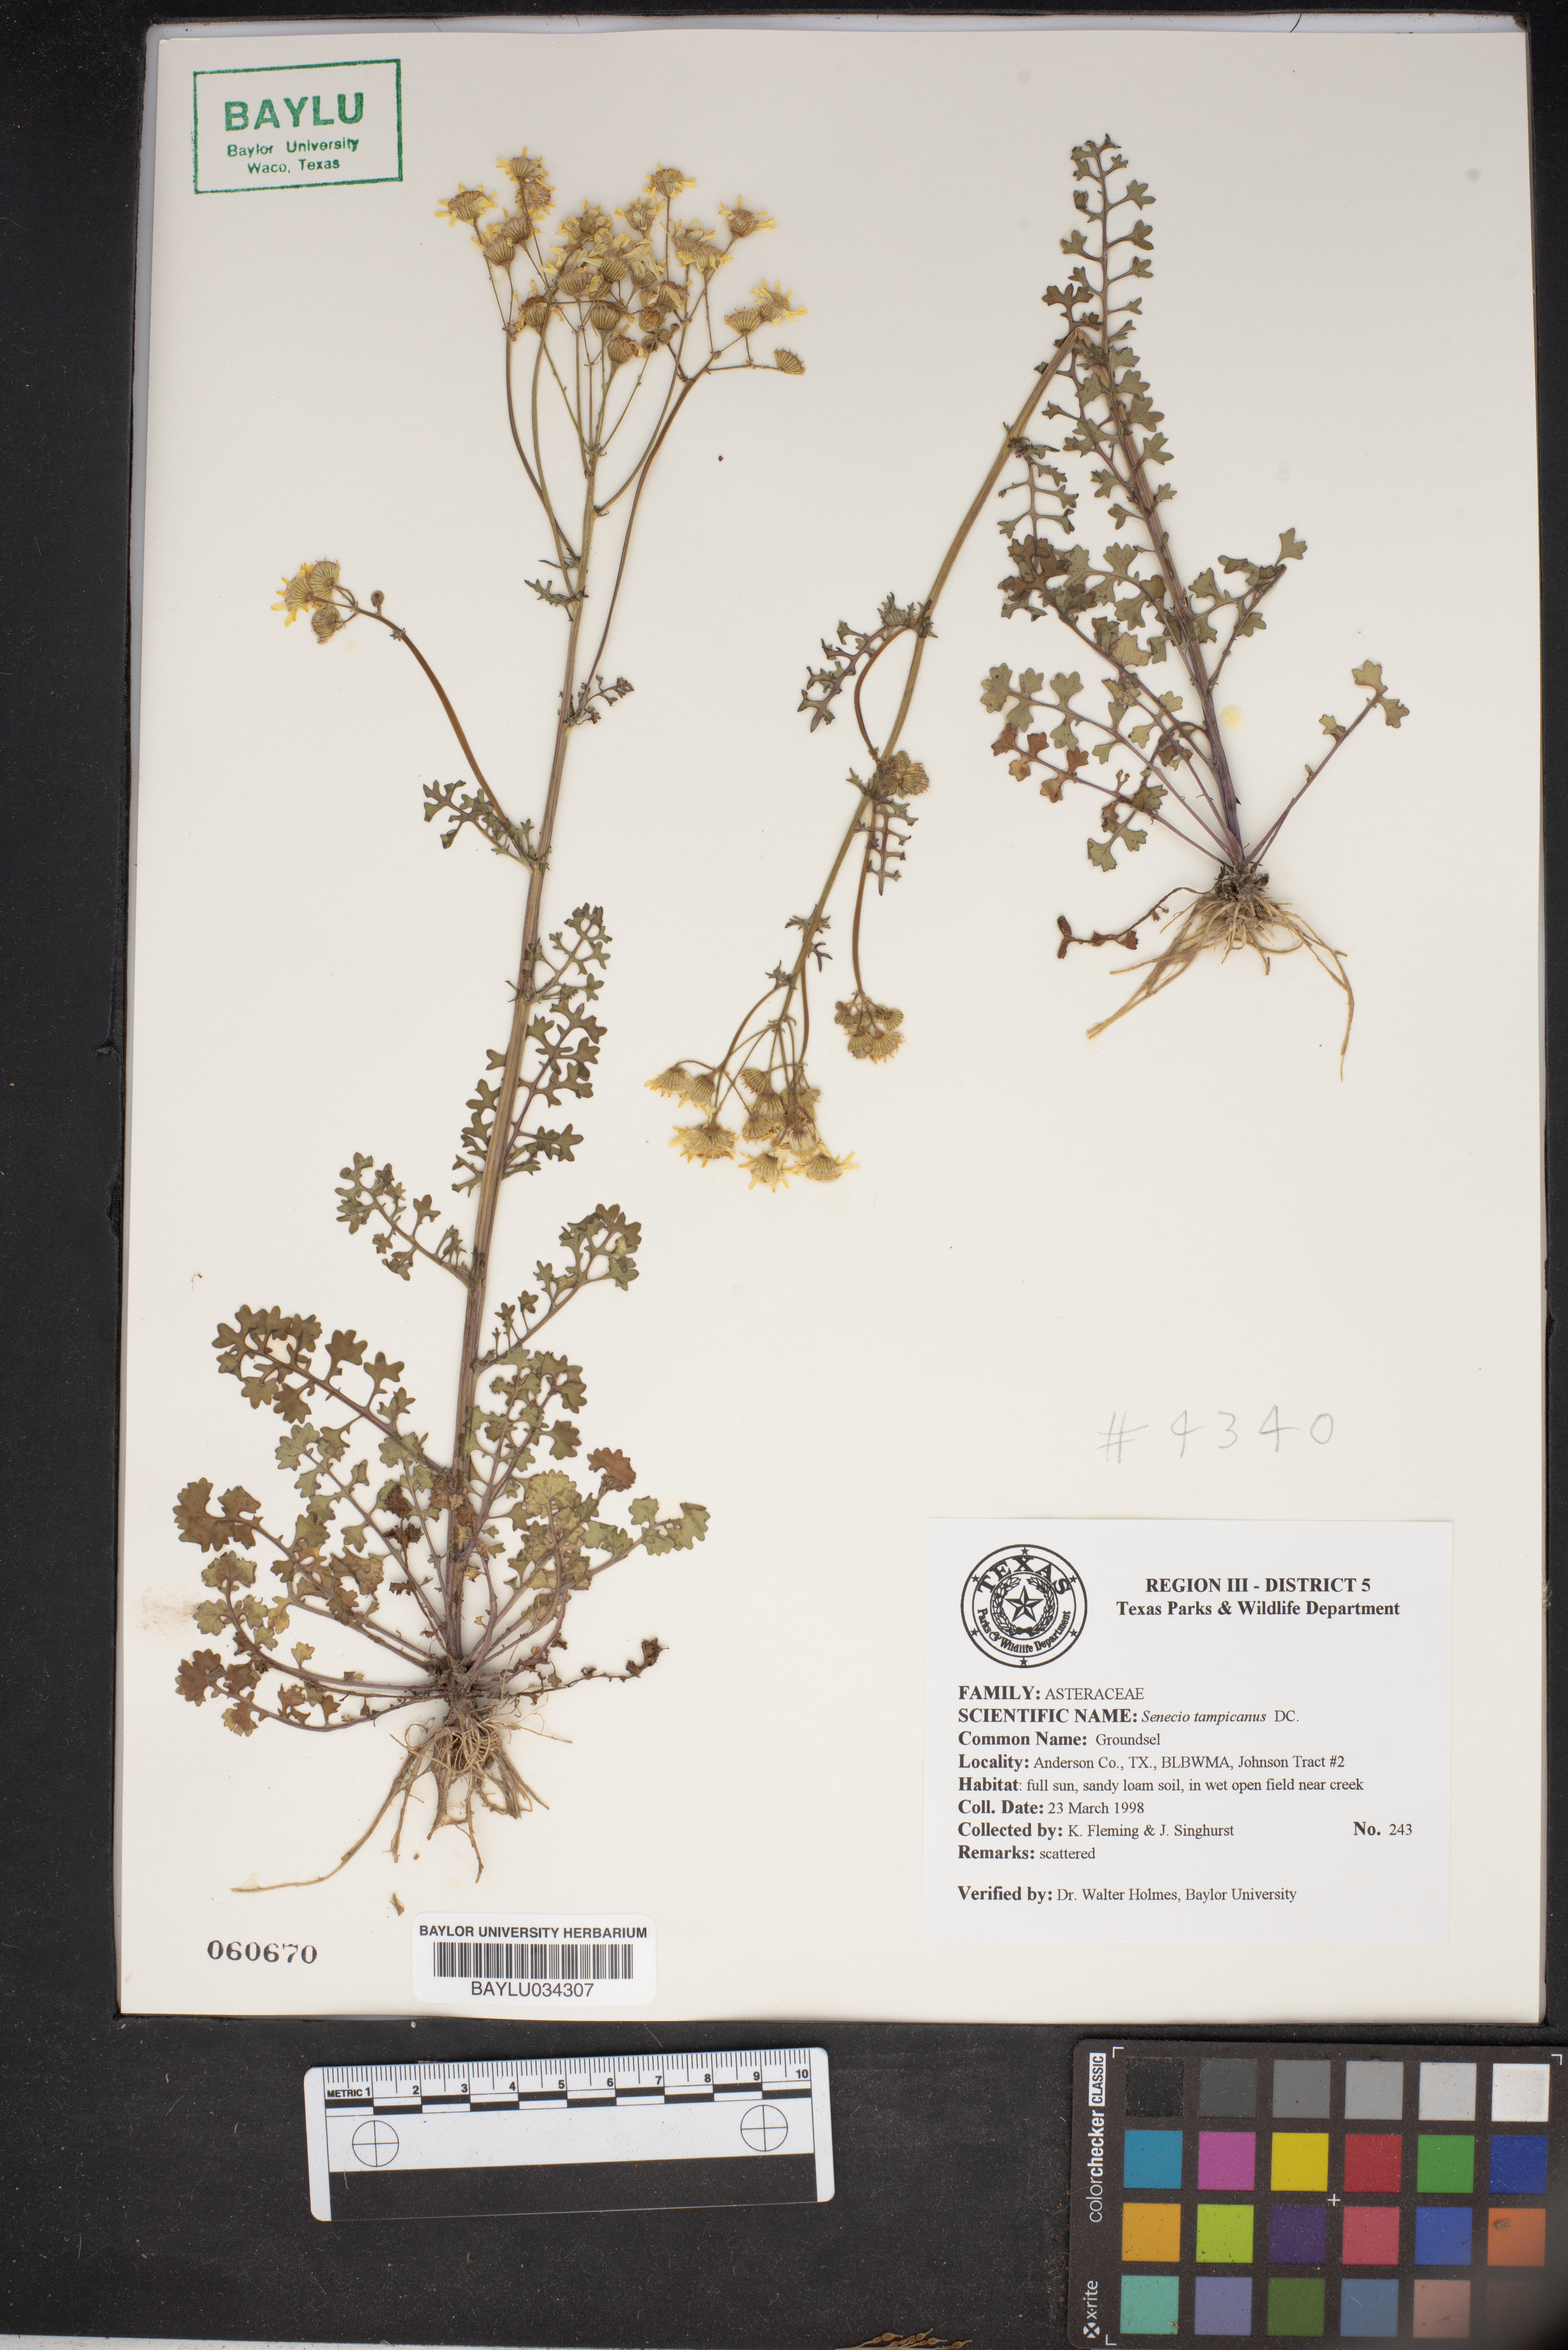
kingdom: Plantae
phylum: Tracheophyta
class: Magnoliopsida
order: Asterales
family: Asteraceae
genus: Packera
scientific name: Packera tampicana
